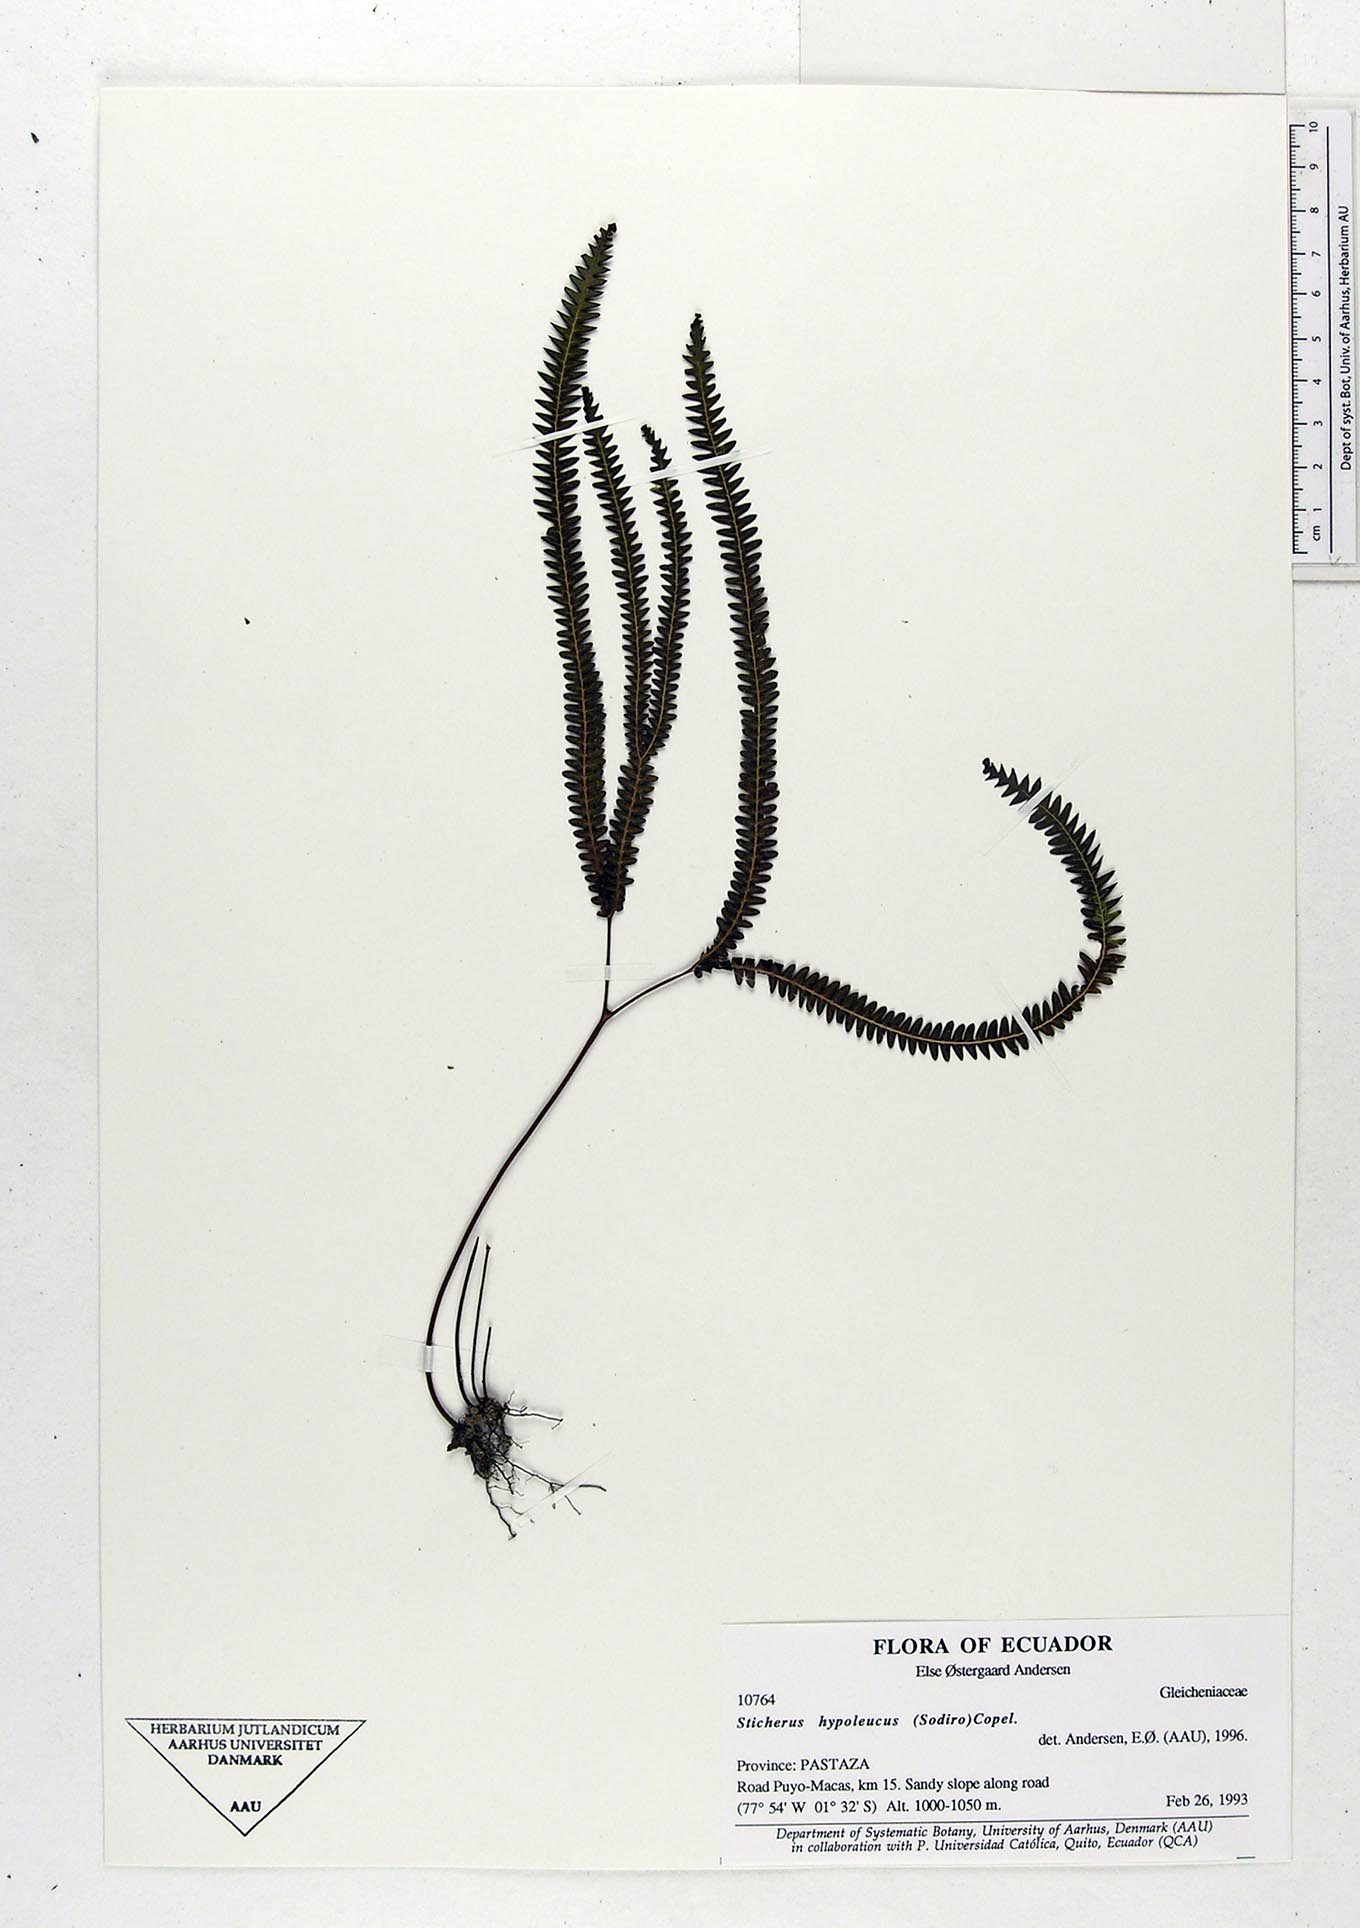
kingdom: Plantae
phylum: Tracheophyta
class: Polypodiopsida
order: Gleicheniales
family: Gleicheniaceae
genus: Sticherus
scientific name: Sticherus hypoleucus
